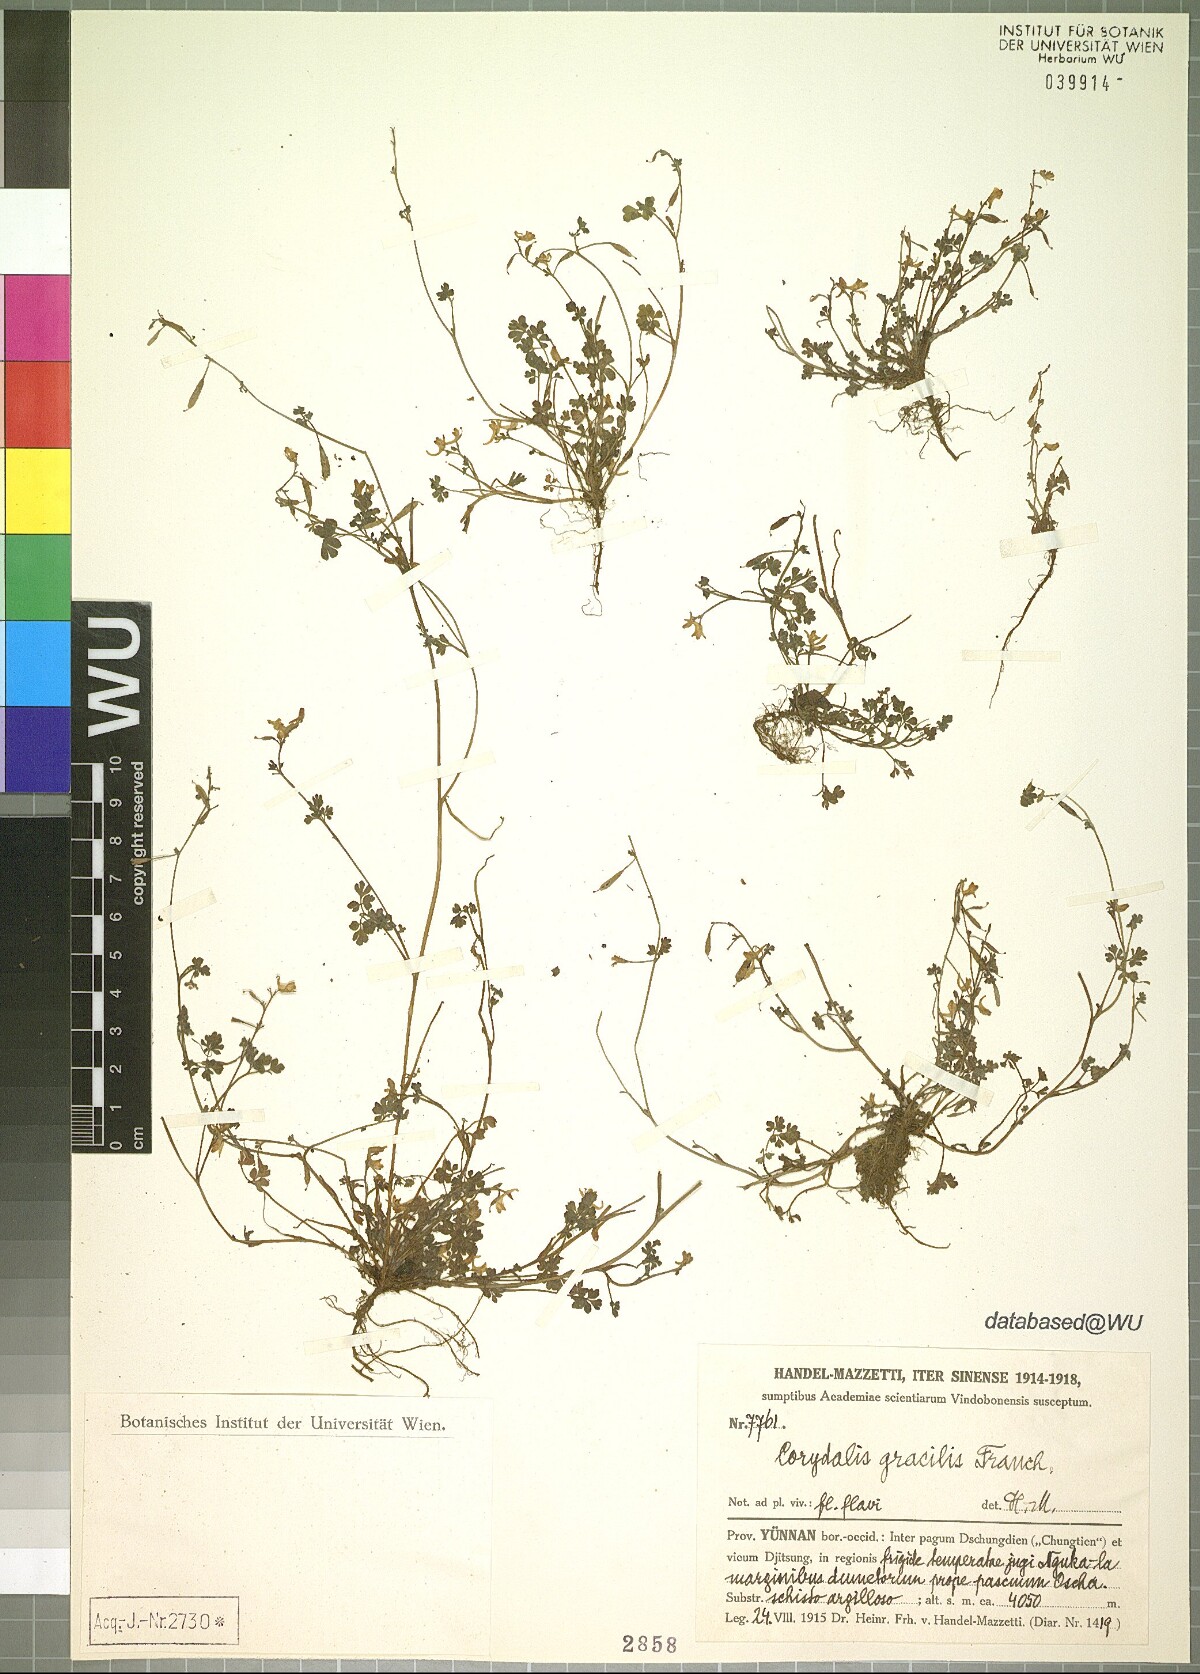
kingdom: Plantae
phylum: Tracheophyta
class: Magnoliopsida
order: Ranunculales
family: Papaveraceae
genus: Corydalis
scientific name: Corydalis gracillima
